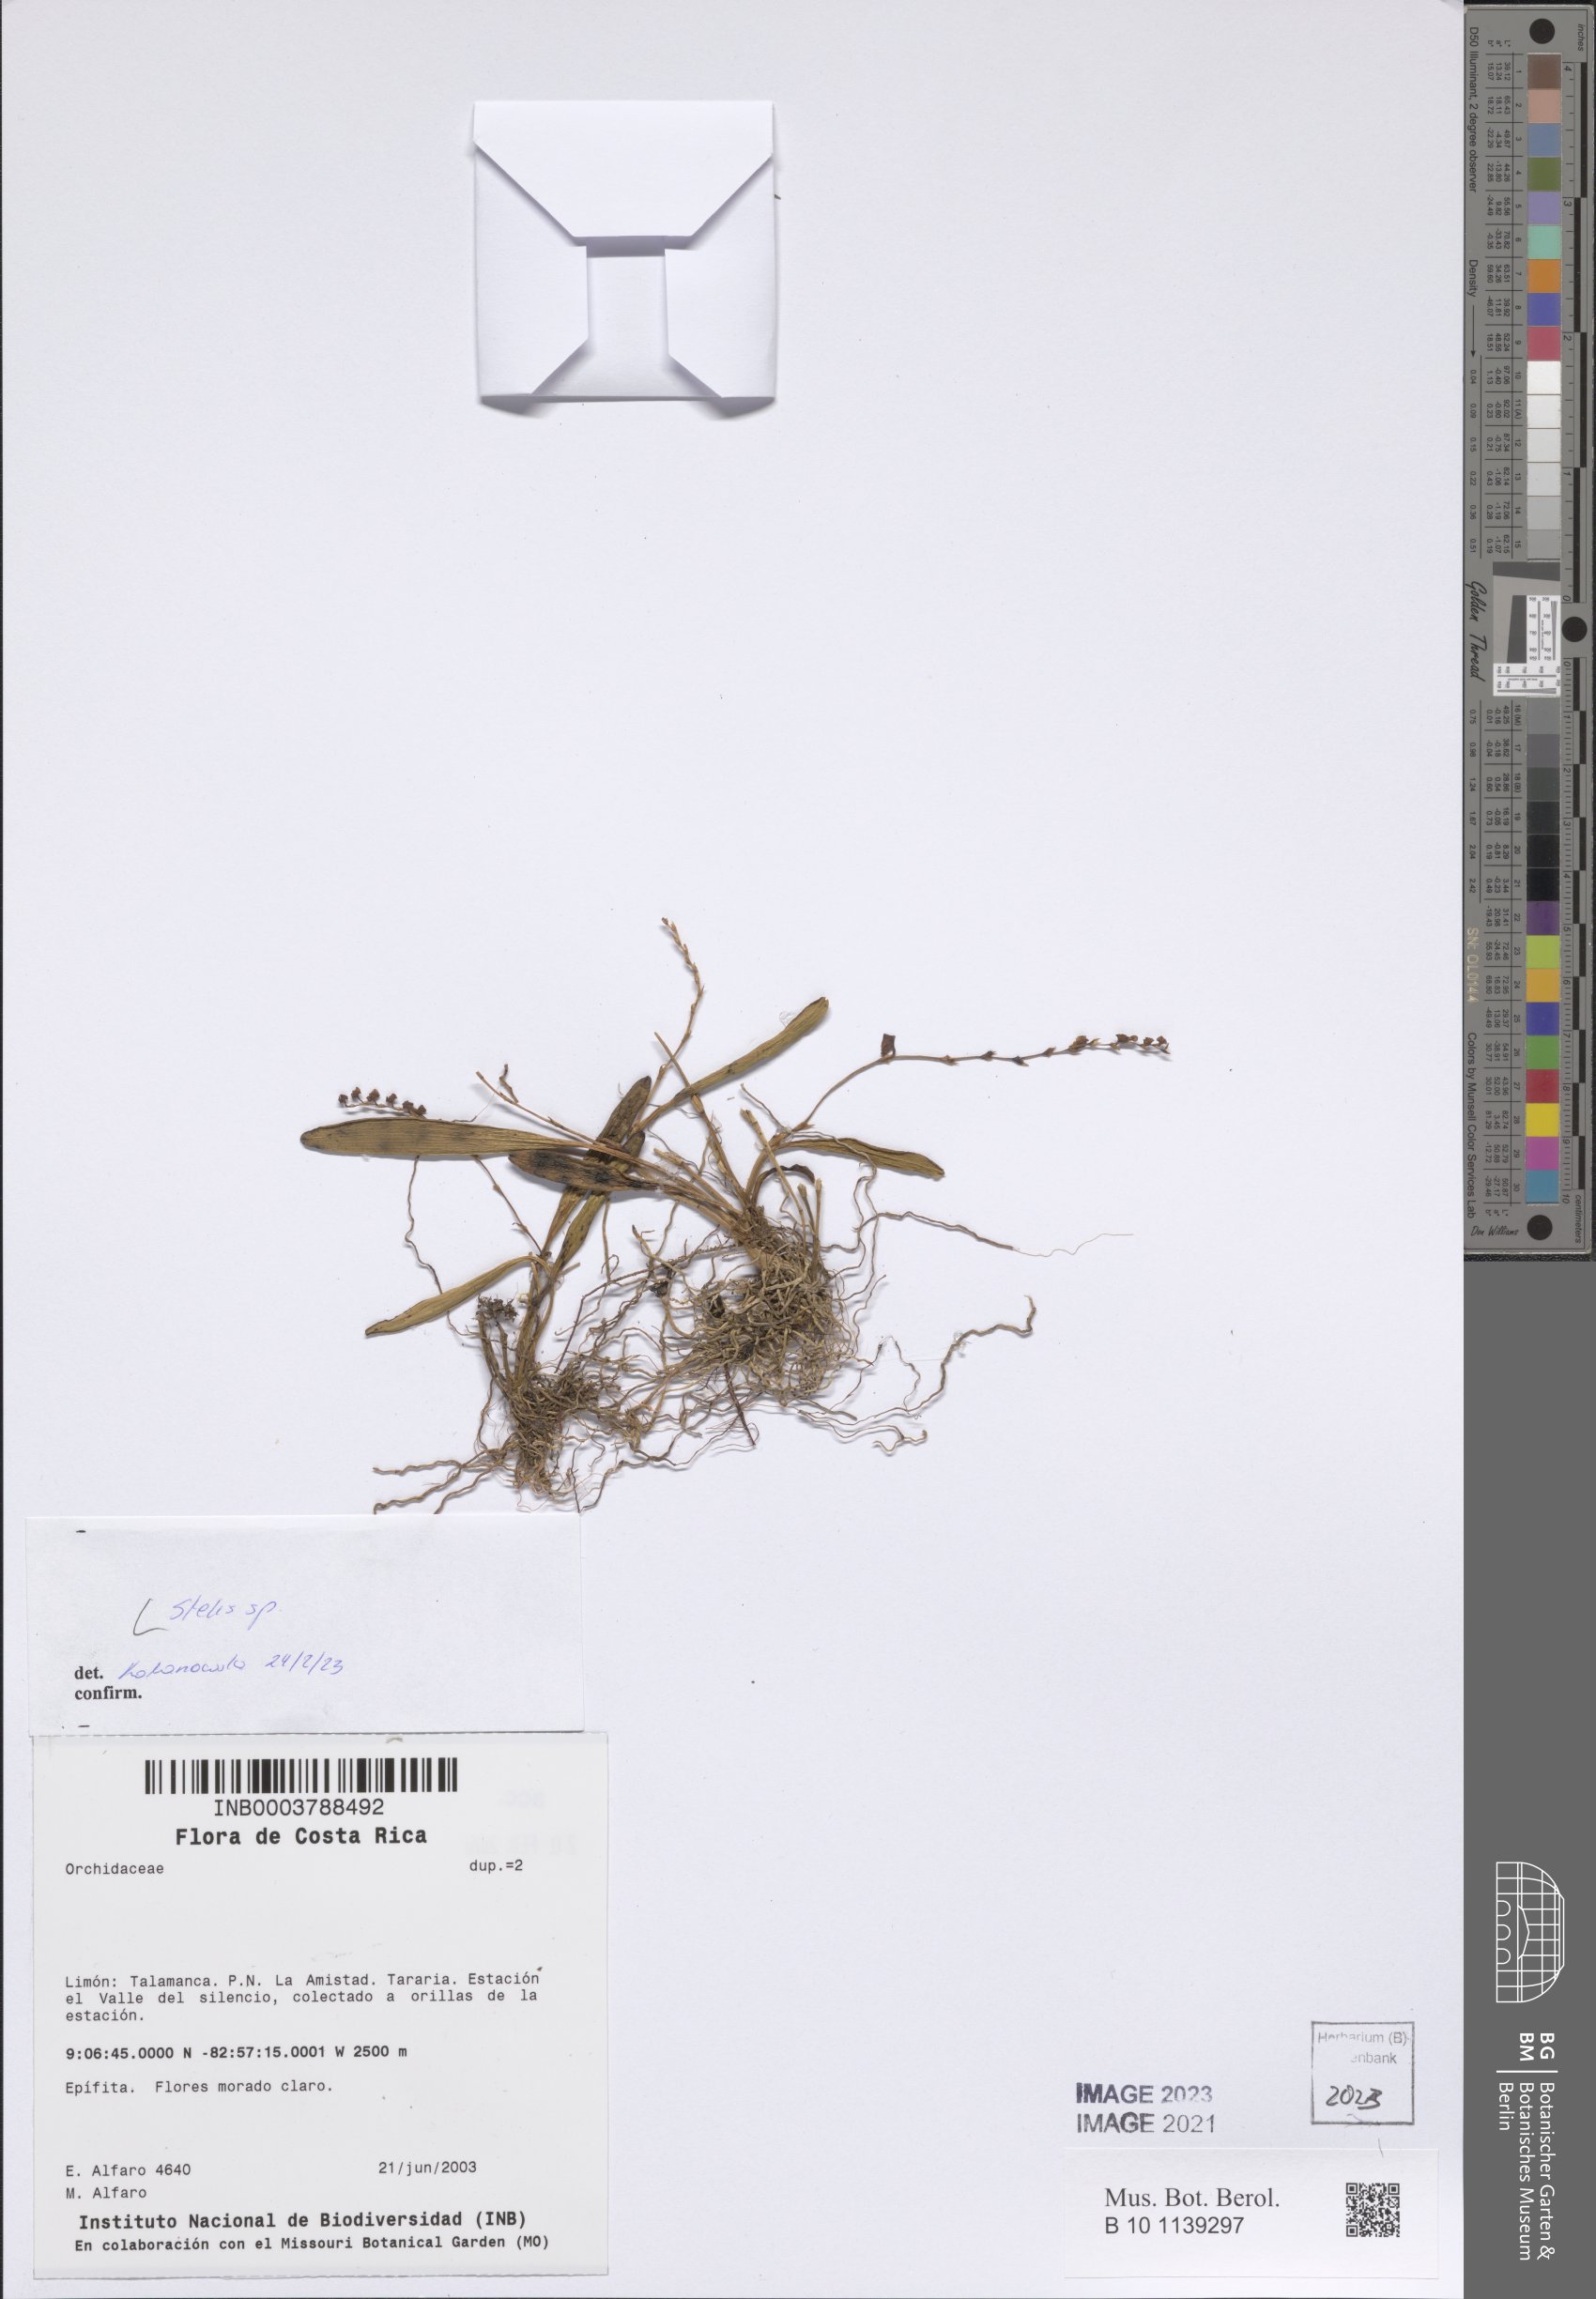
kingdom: Plantae
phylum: Tracheophyta
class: Liliopsida
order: Asparagales
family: Orchidaceae
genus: Stelis
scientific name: Stelis
